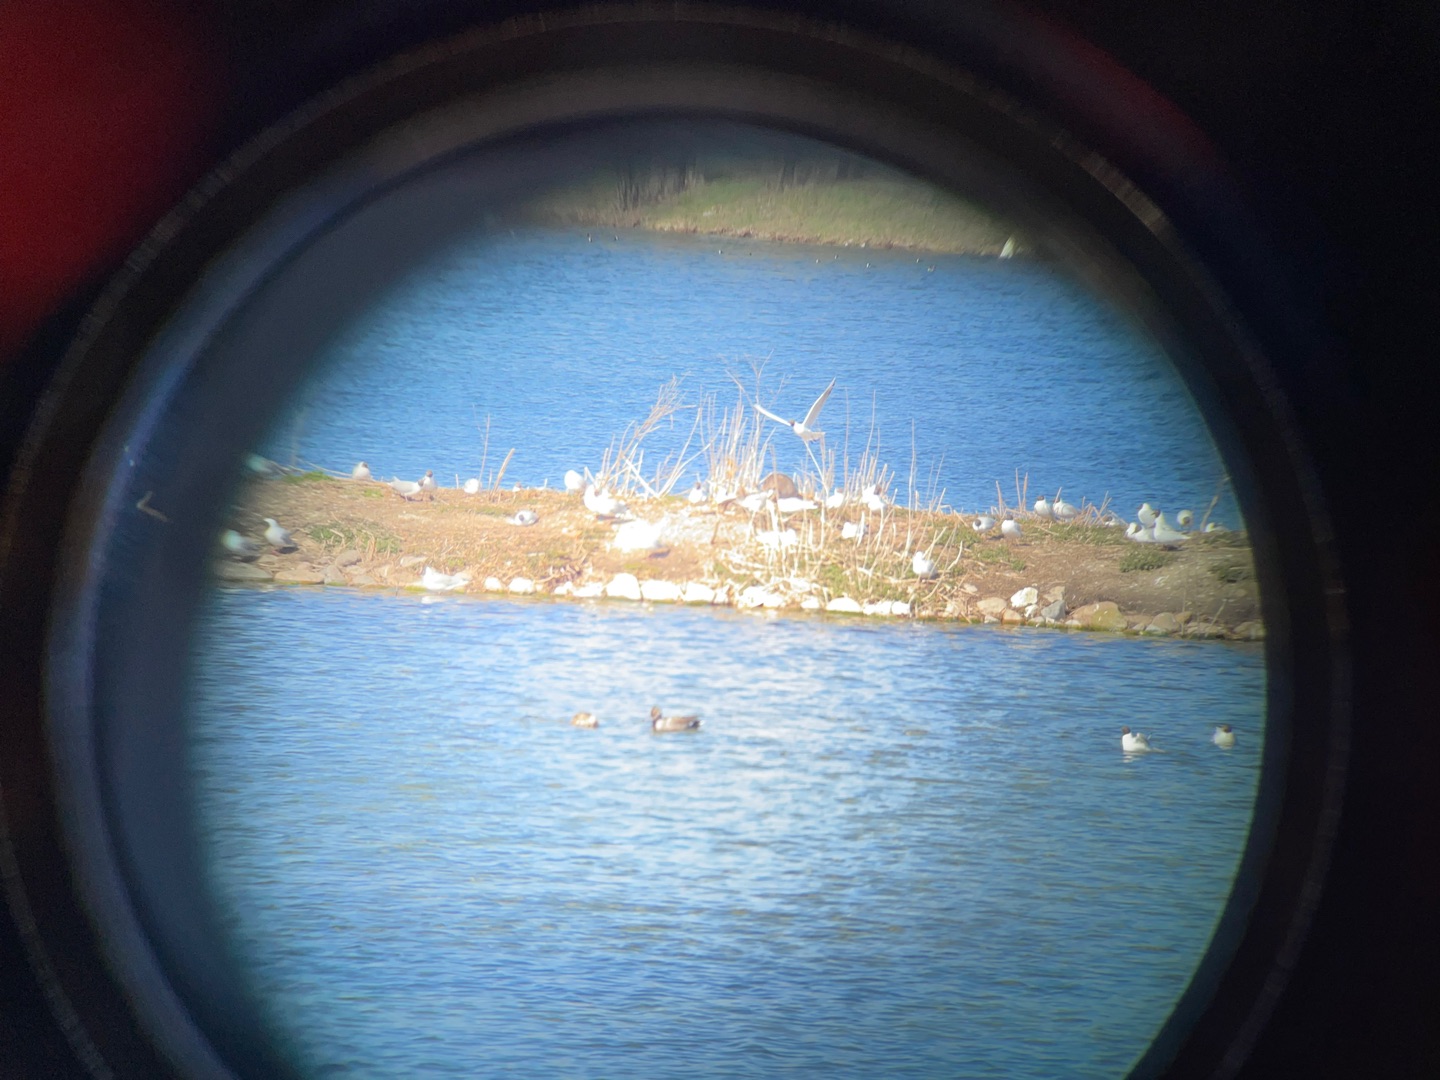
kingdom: Animalia
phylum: Chordata
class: Aves
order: Charadriiformes
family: Laridae
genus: Chroicocephalus
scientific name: Chroicocephalus ridibundus
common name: Hættemåge
